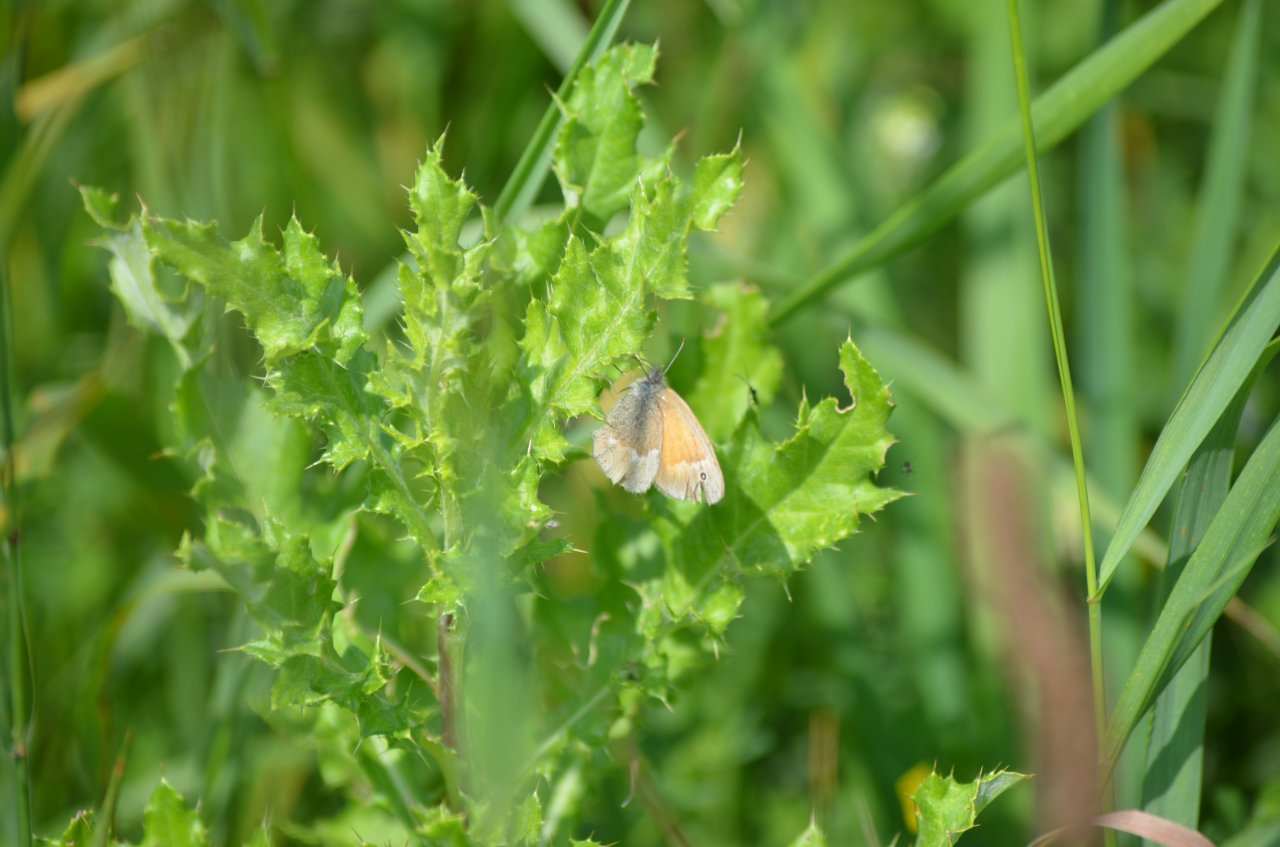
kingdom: Animalia
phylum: Arthropoda
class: Insecta
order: Lepidoptera
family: Nymphalidae
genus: Coenonympha
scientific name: Coenonympha tullia
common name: Large Heath
